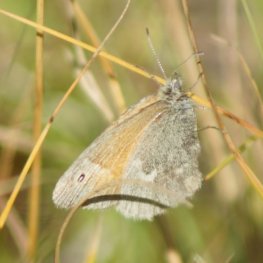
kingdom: Animalia
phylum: Arthropoda
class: Insecta
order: Lepidoptera
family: Nymphalidae
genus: Coenonympha
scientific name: Coenonympha tullia
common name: Large Heath
